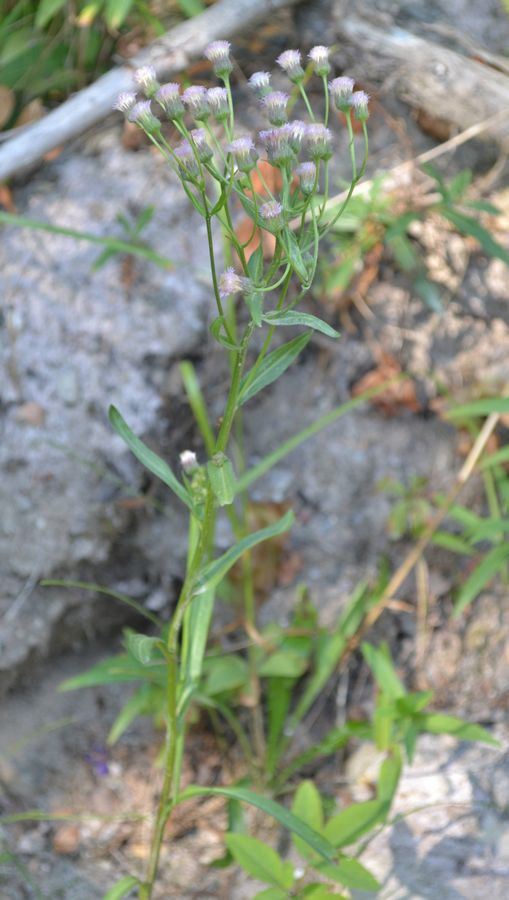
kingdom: Plantae
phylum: Tracheophyta
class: Magnoliopsida
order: Asterales
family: Asteraceae
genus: Cirsium
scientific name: Cirsium arvense
